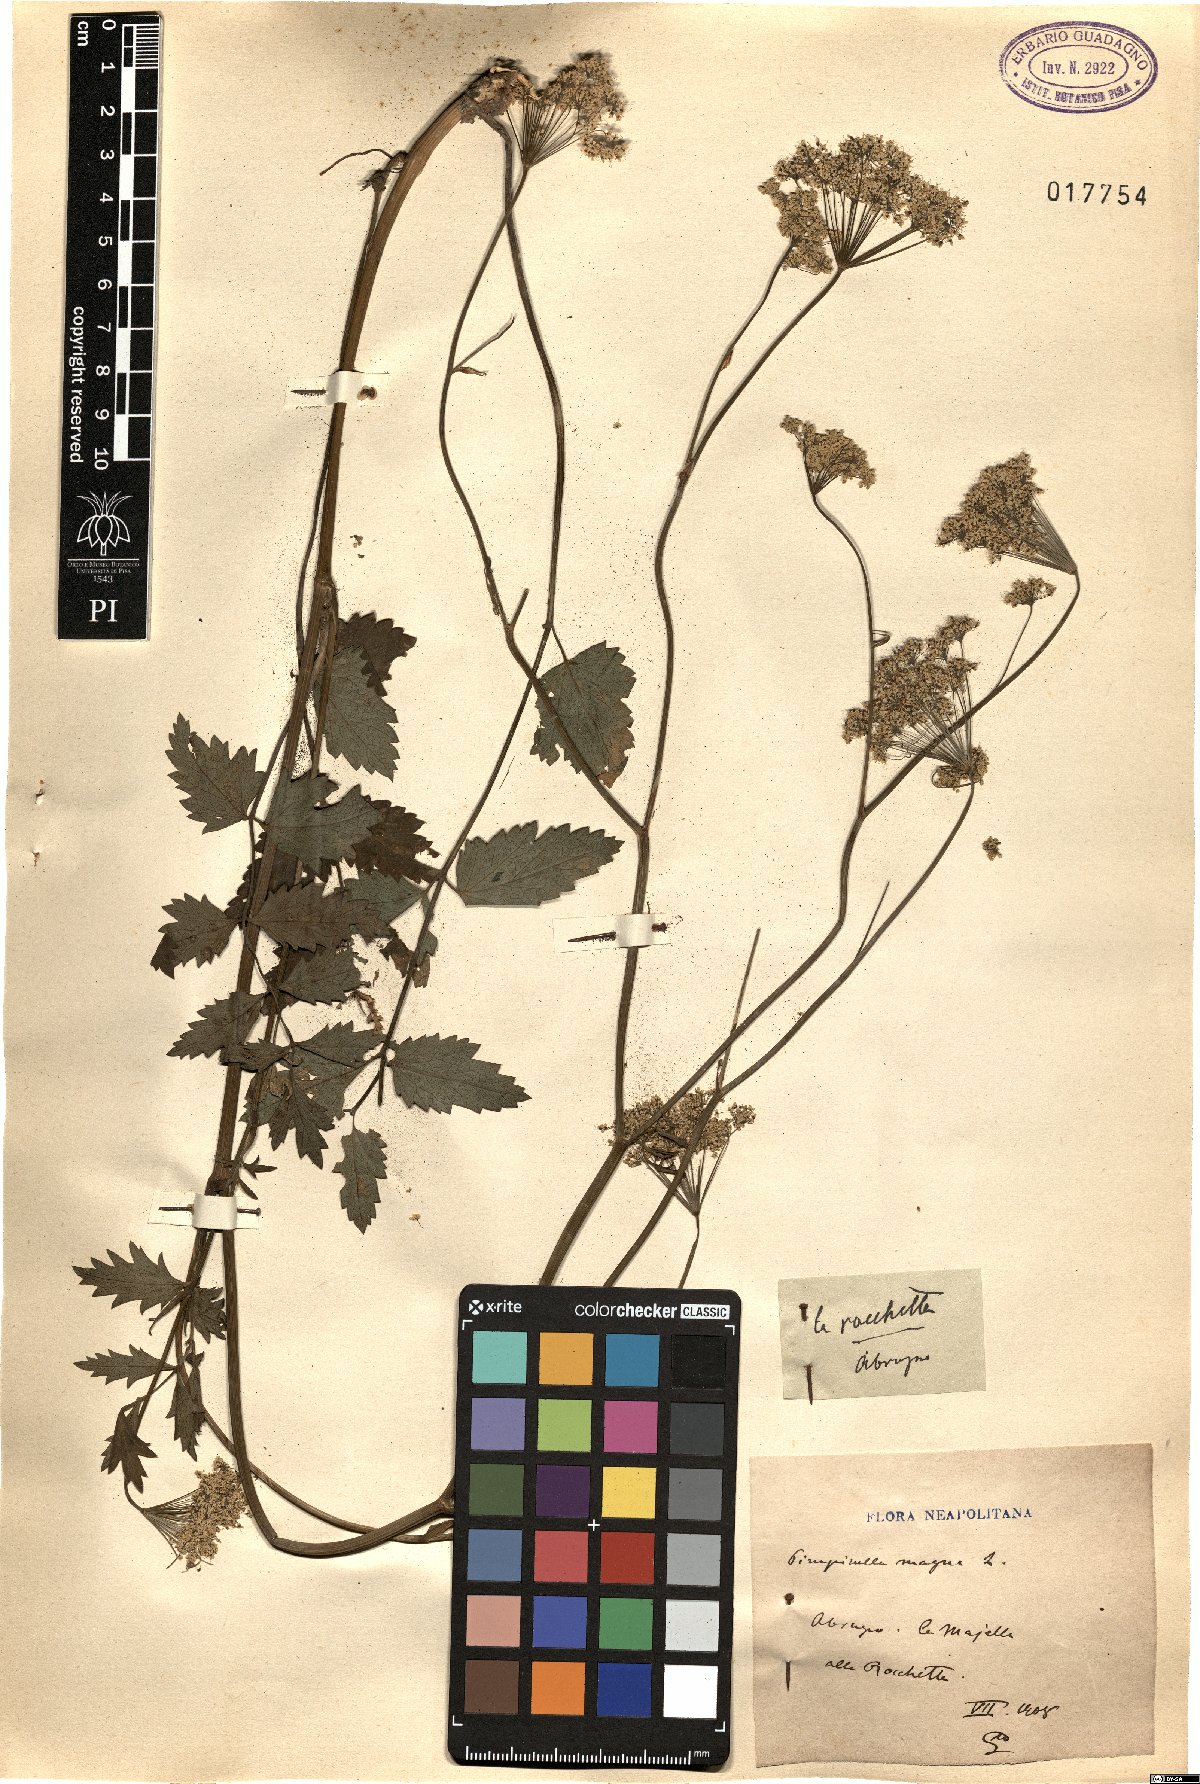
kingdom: Plantae
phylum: Tracheophyta
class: Magnoliopsida
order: Apiales
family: Apiaceae
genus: Pimpinella
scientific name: Pimpinella major
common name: Greater burnet-saxifrage
